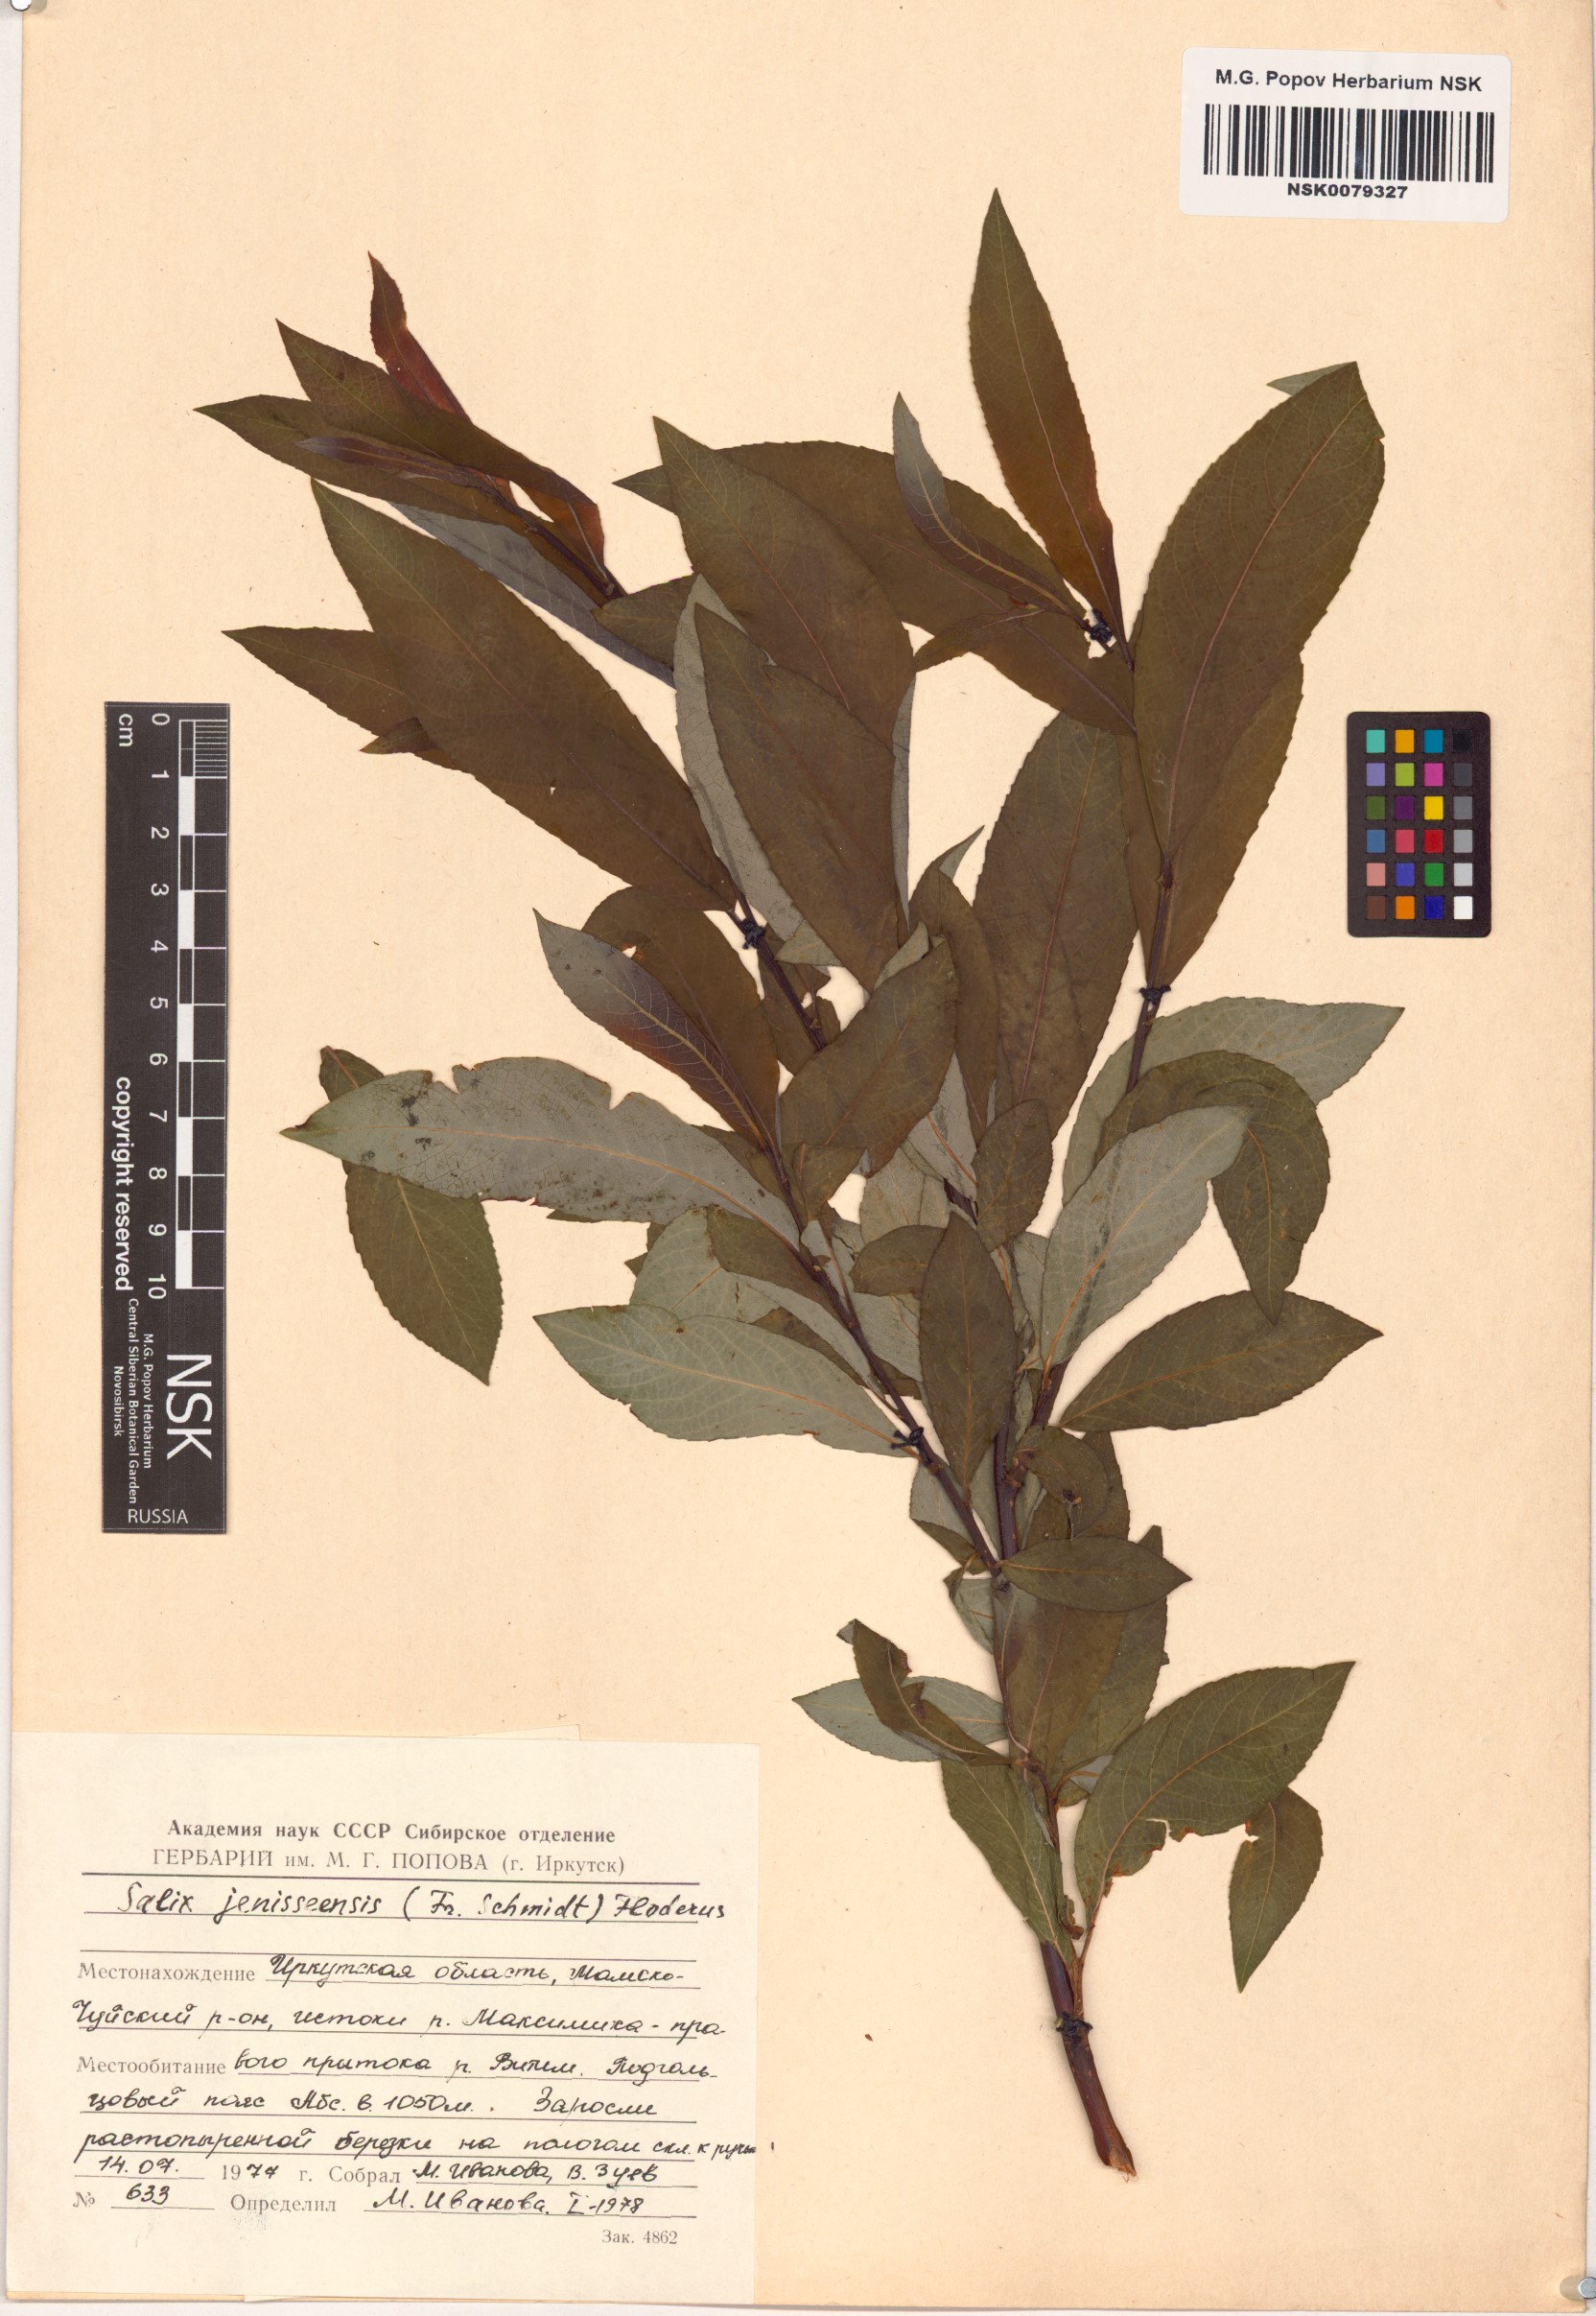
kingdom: Plantae
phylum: Tracheophyta
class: Magnoliopsida
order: Malpighiales
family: Salicaceae
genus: Salix
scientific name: Salix jenisseensis
